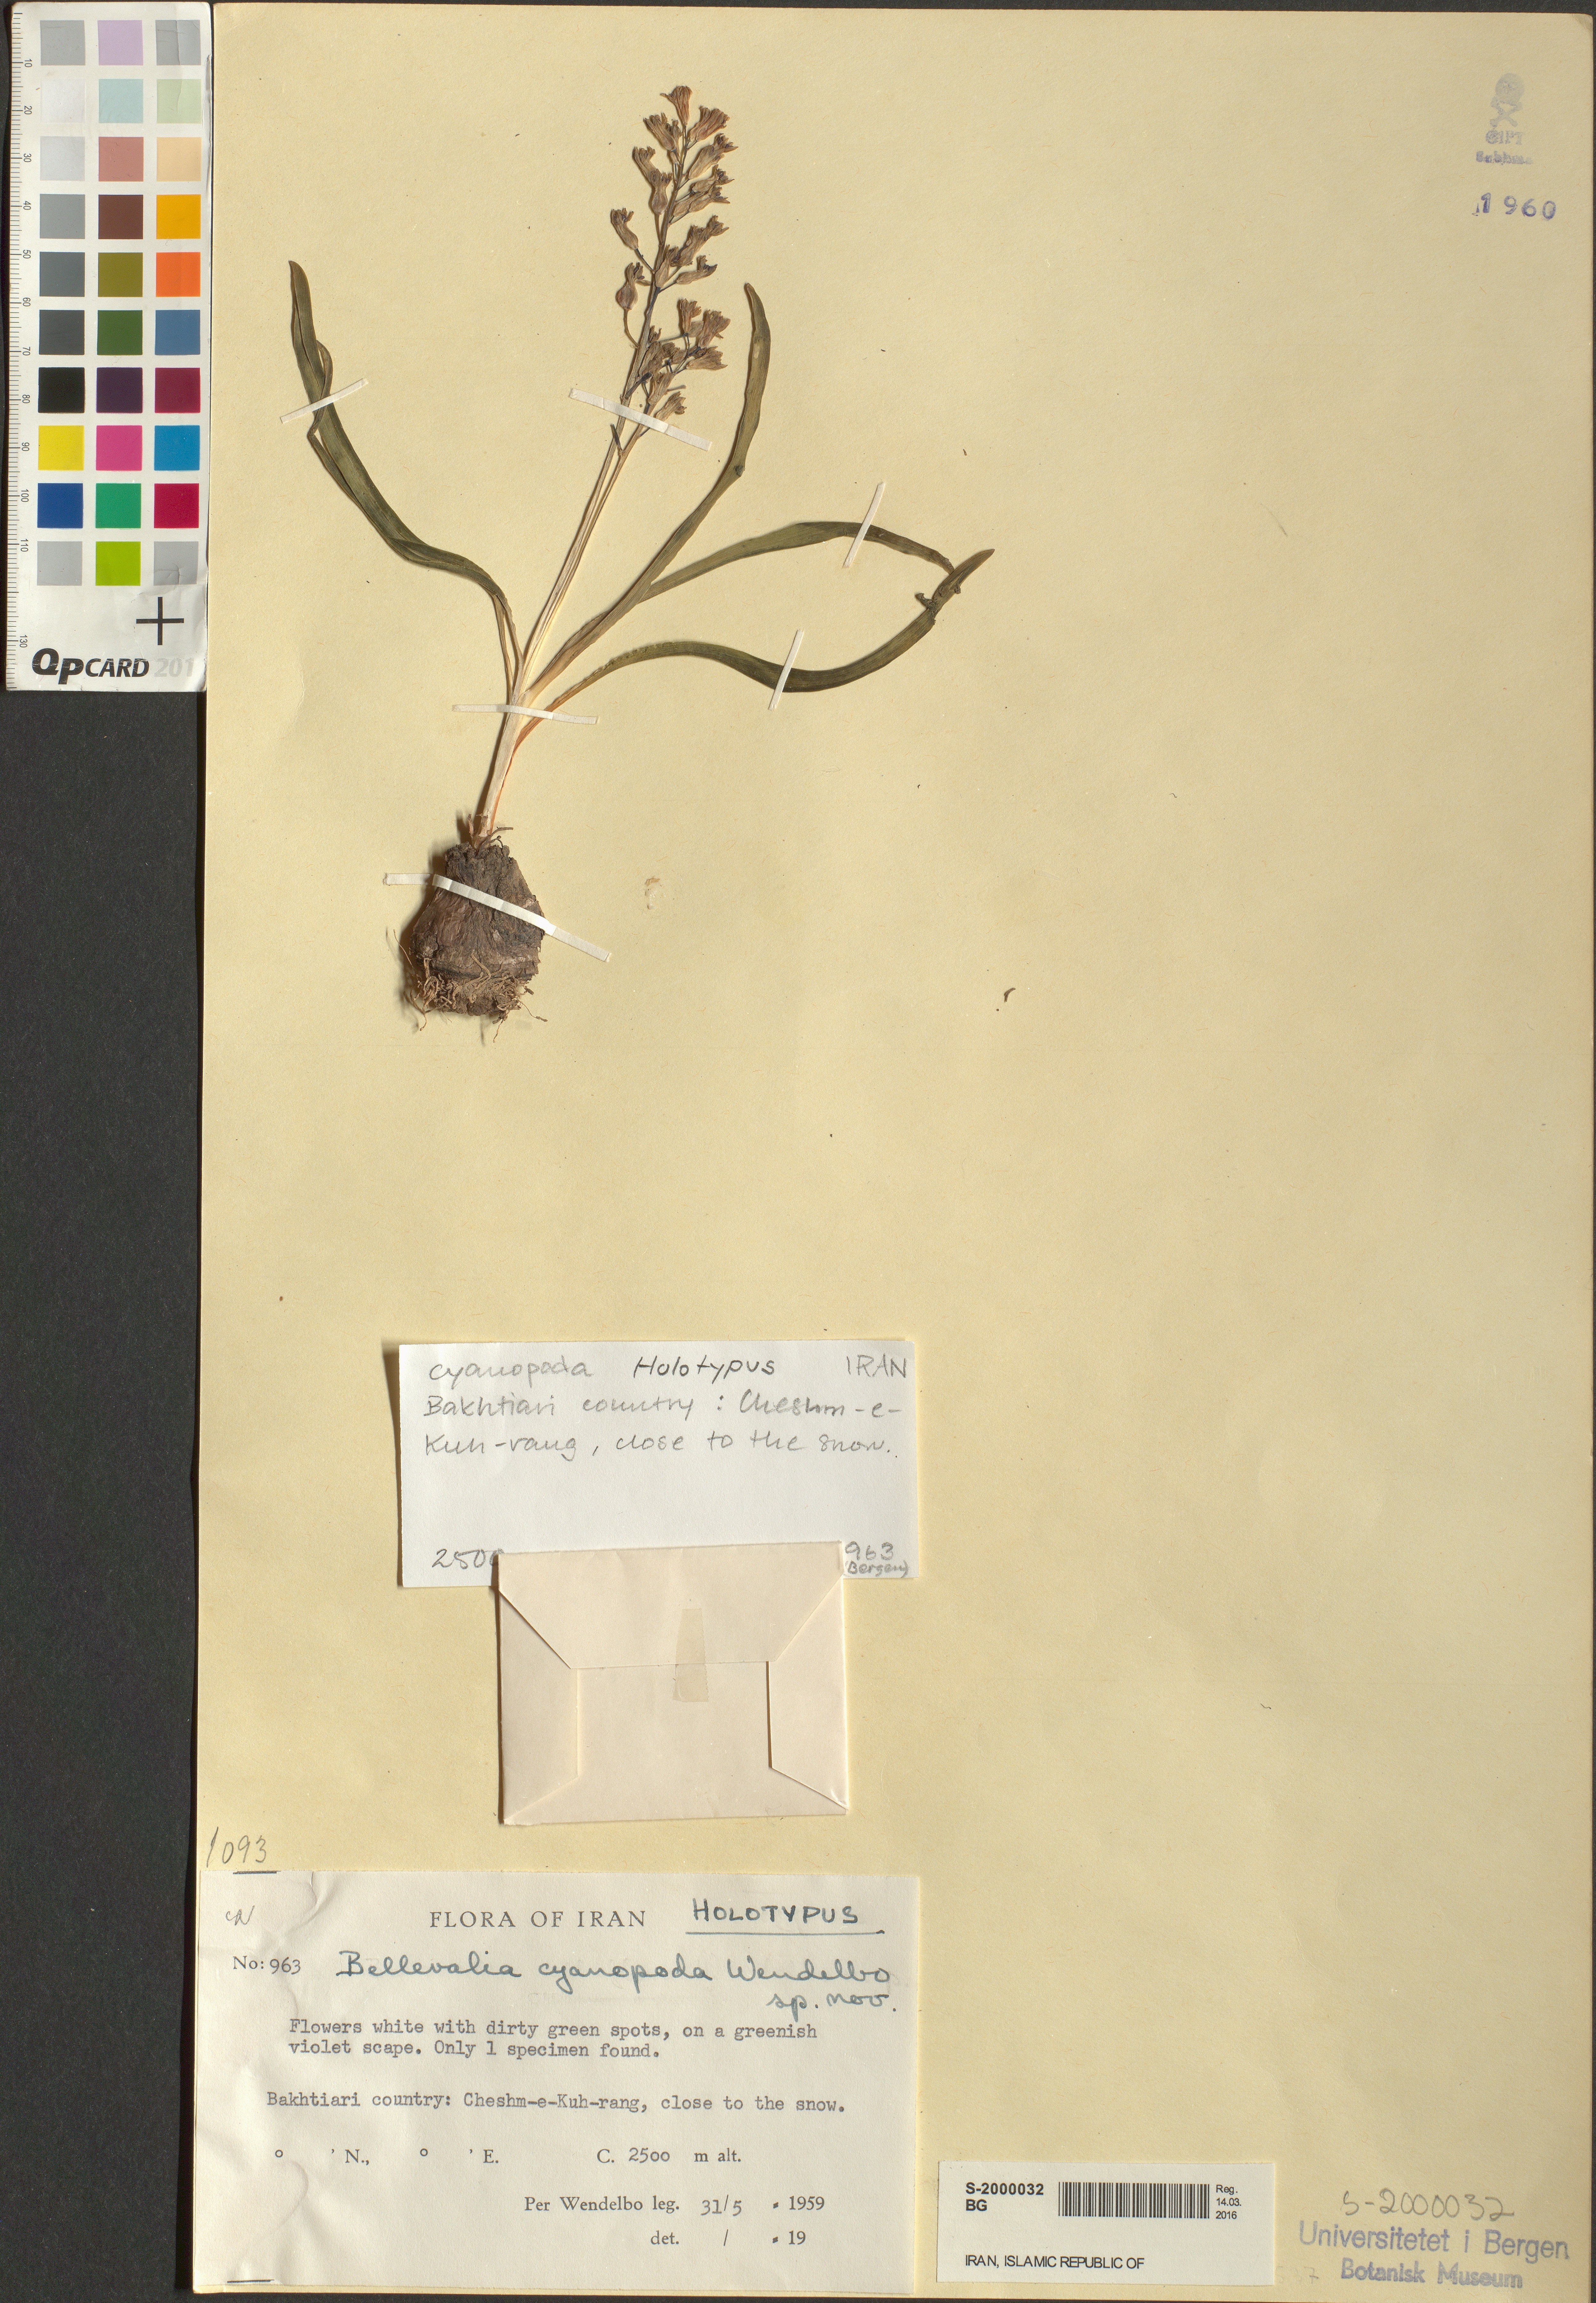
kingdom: Plantae
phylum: Tracheophyta
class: Liliopsida
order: Asparagales
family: Asparagaceae
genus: Bellevalia
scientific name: Bellevalia cyanopoda
